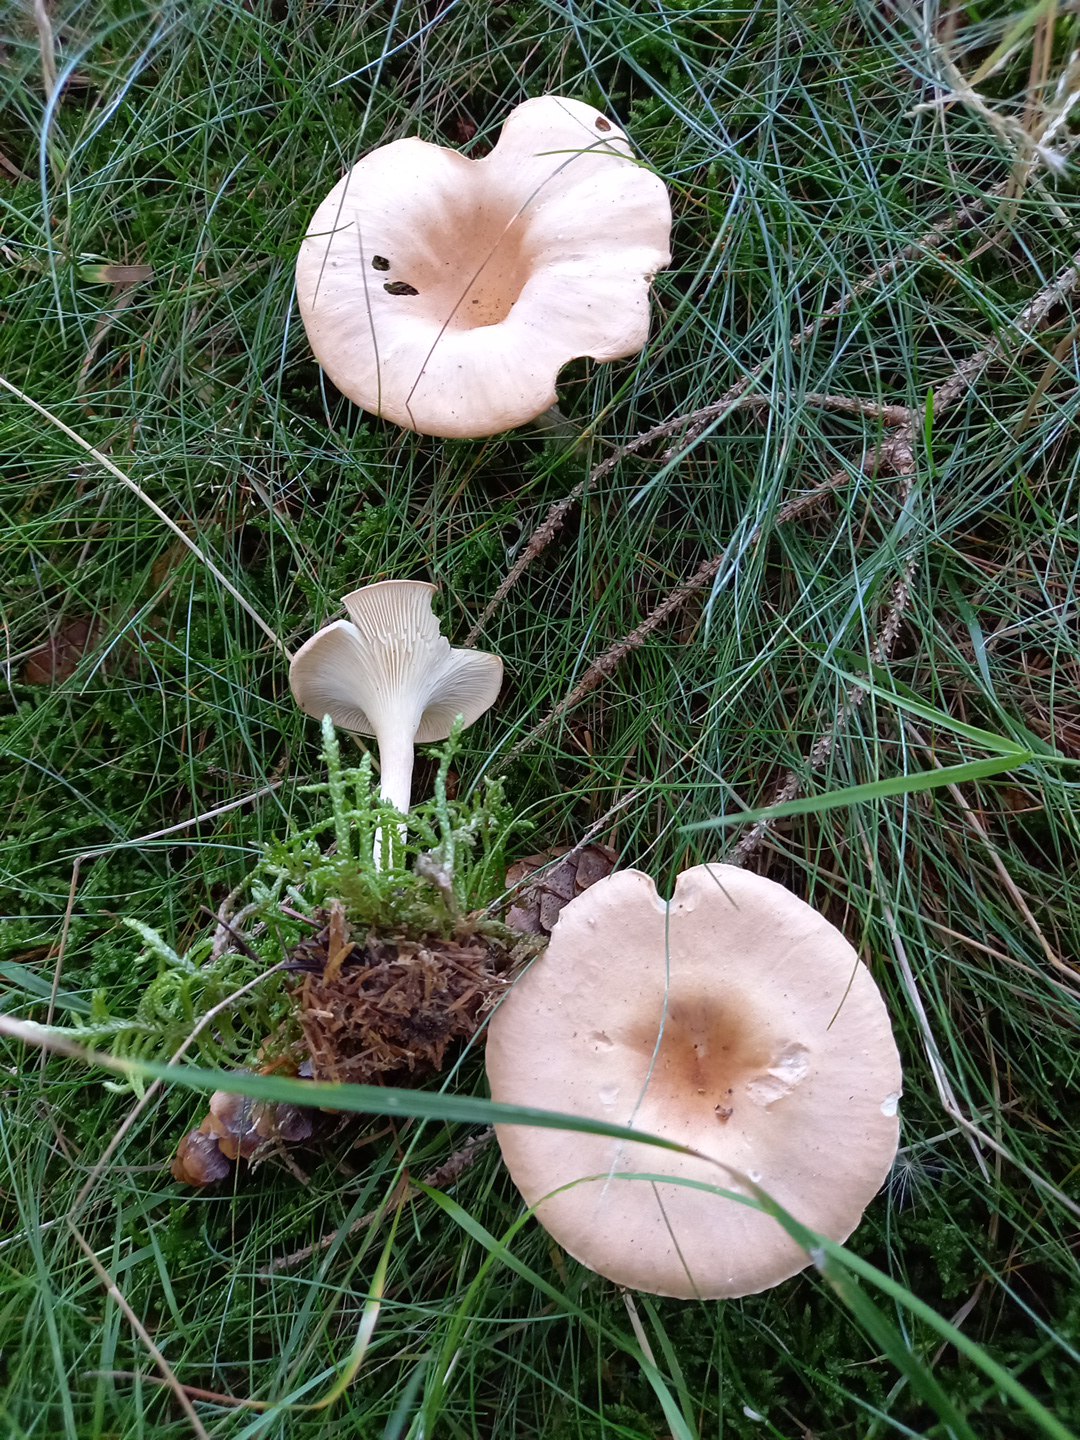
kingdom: Fungi
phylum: Basidiomycota
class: Agaricomycetes
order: Agaricales
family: Tricholomataceae
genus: Infundibulicybe
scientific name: Infundibulicybe gibba
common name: almindelig tragthat
